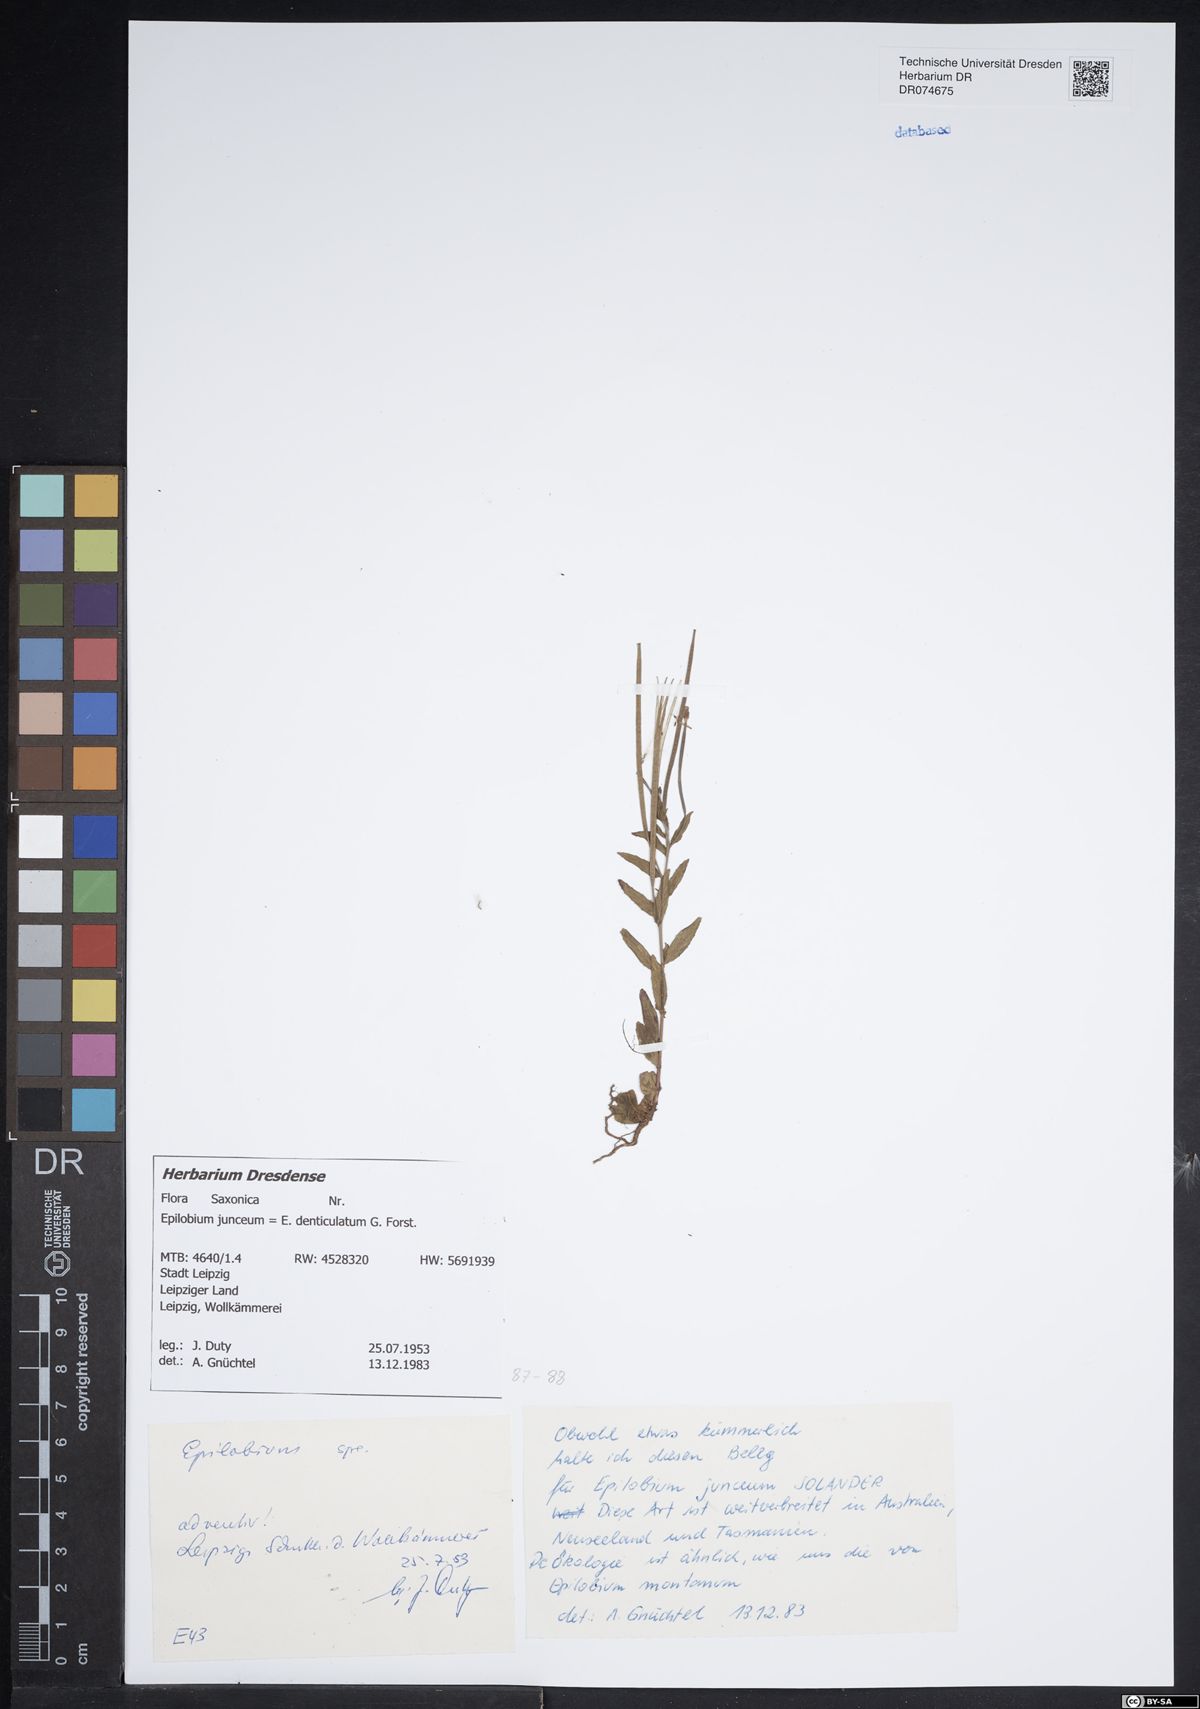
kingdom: Plantae
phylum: Tracheophyta
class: Magnoliopsida
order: Myrtales
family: Onagraceae
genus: Epilobium
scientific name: Epilobium denticulatum
